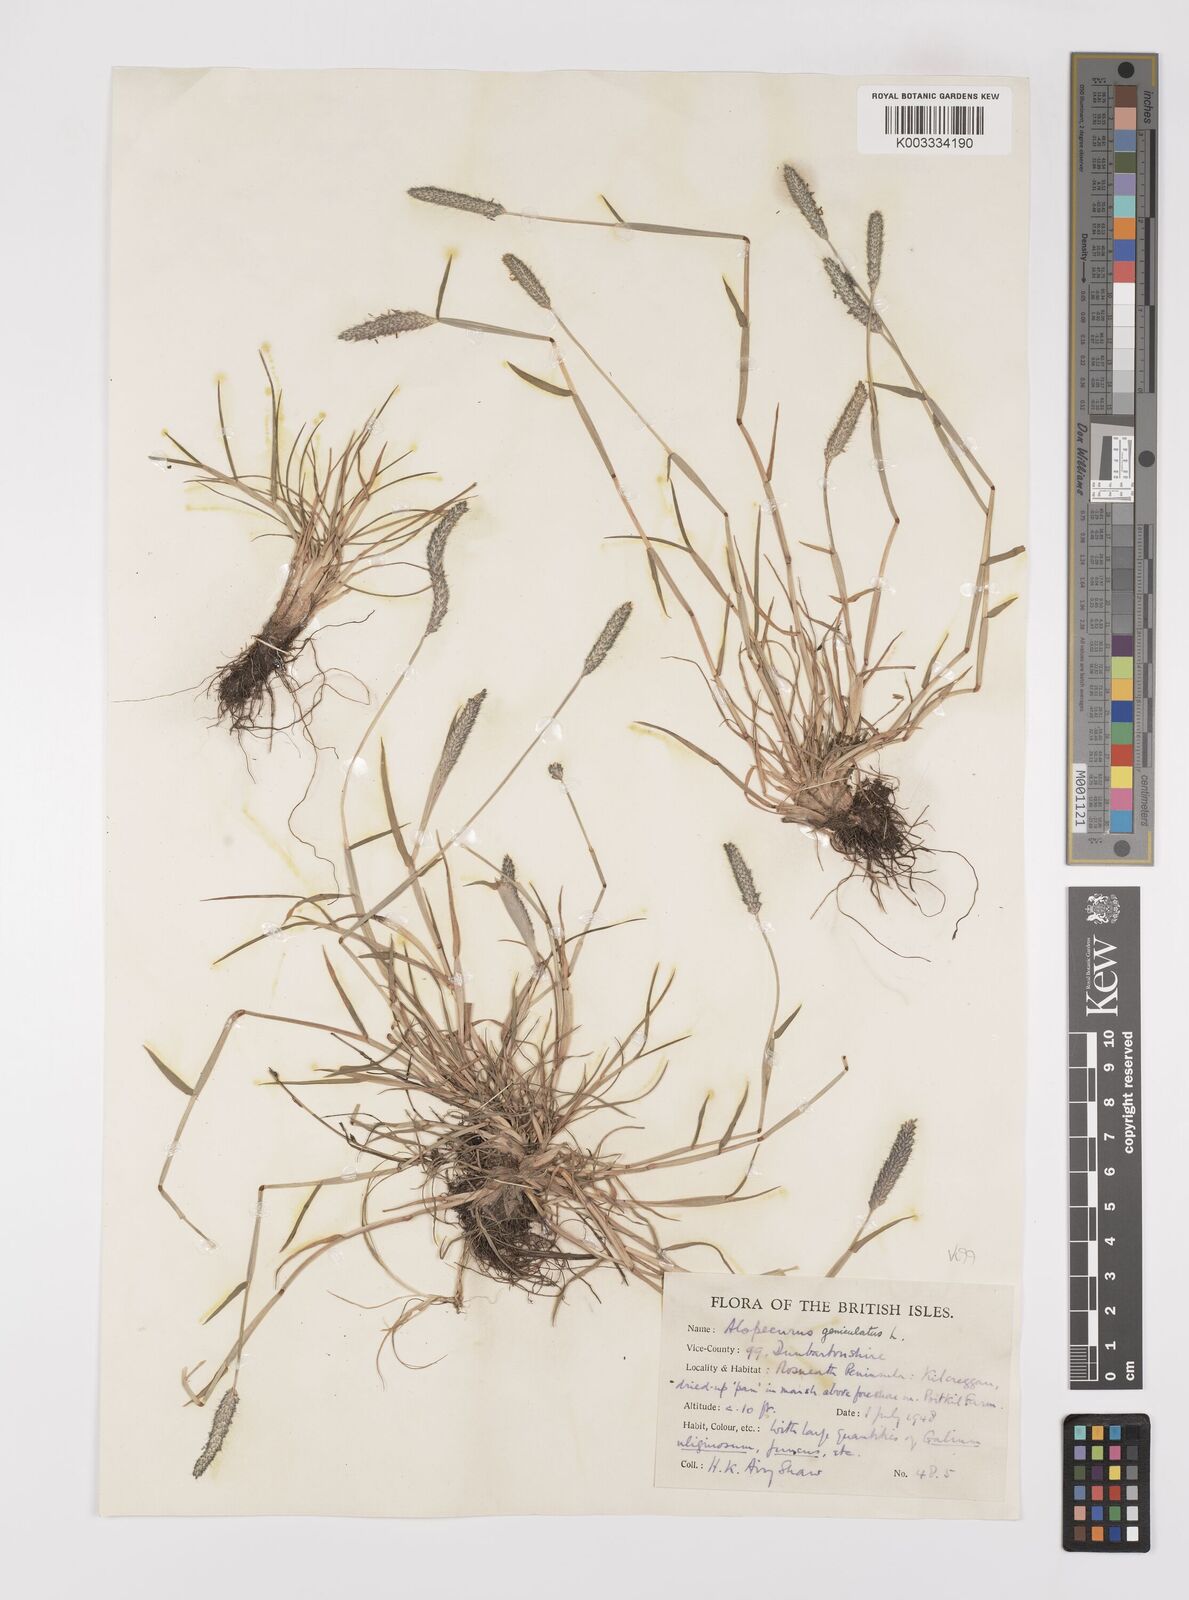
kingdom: Plantae
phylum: Tracheophyta
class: Liliopsida
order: Poales
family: Poaceae
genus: Alopecurus
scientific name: Alopecurus geniculatus
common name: Water foxtail
